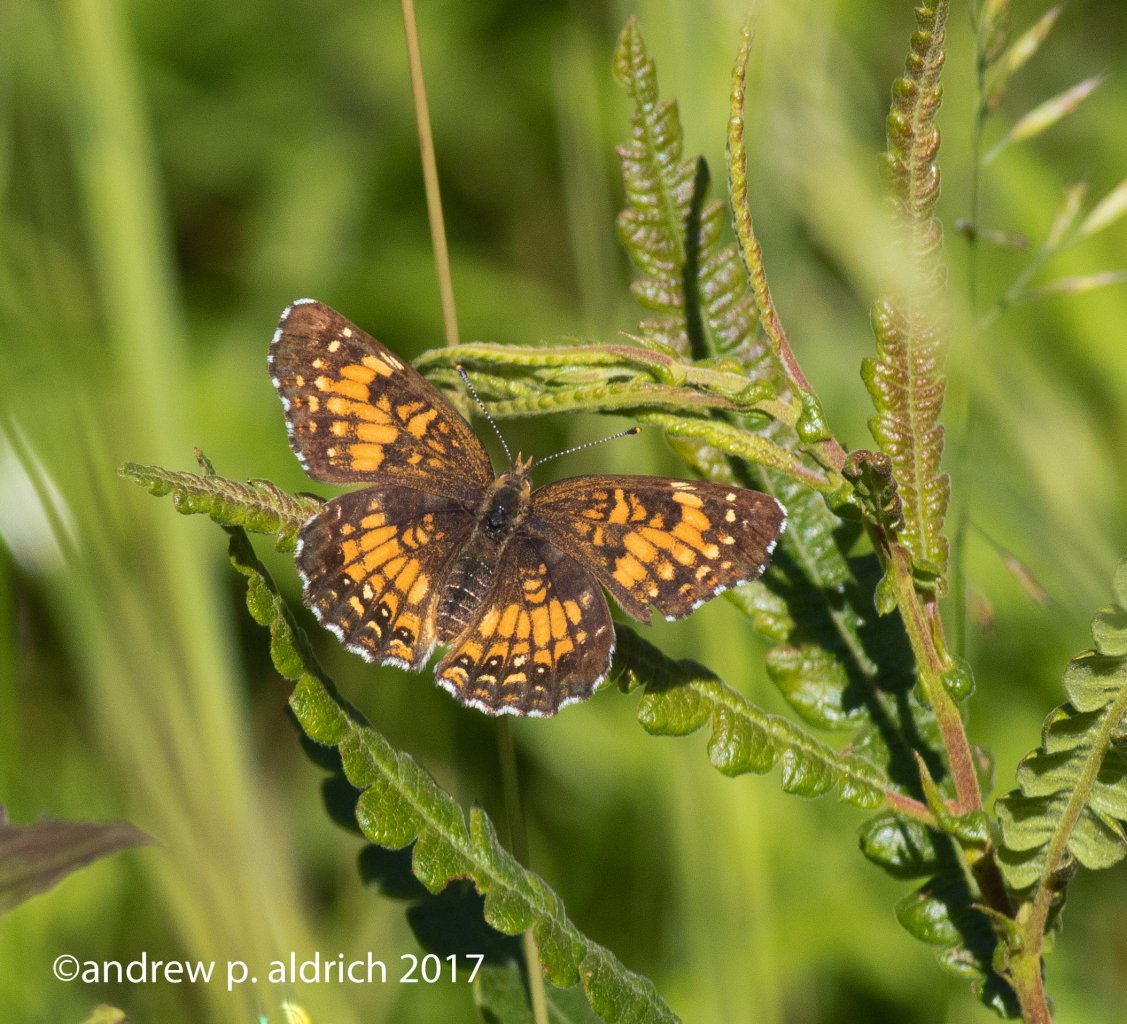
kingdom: Animalia
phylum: Arthropoda
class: Insecta
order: Lepidoptera
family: Nymphalidae
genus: Phyciodes
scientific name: Phyciodes
